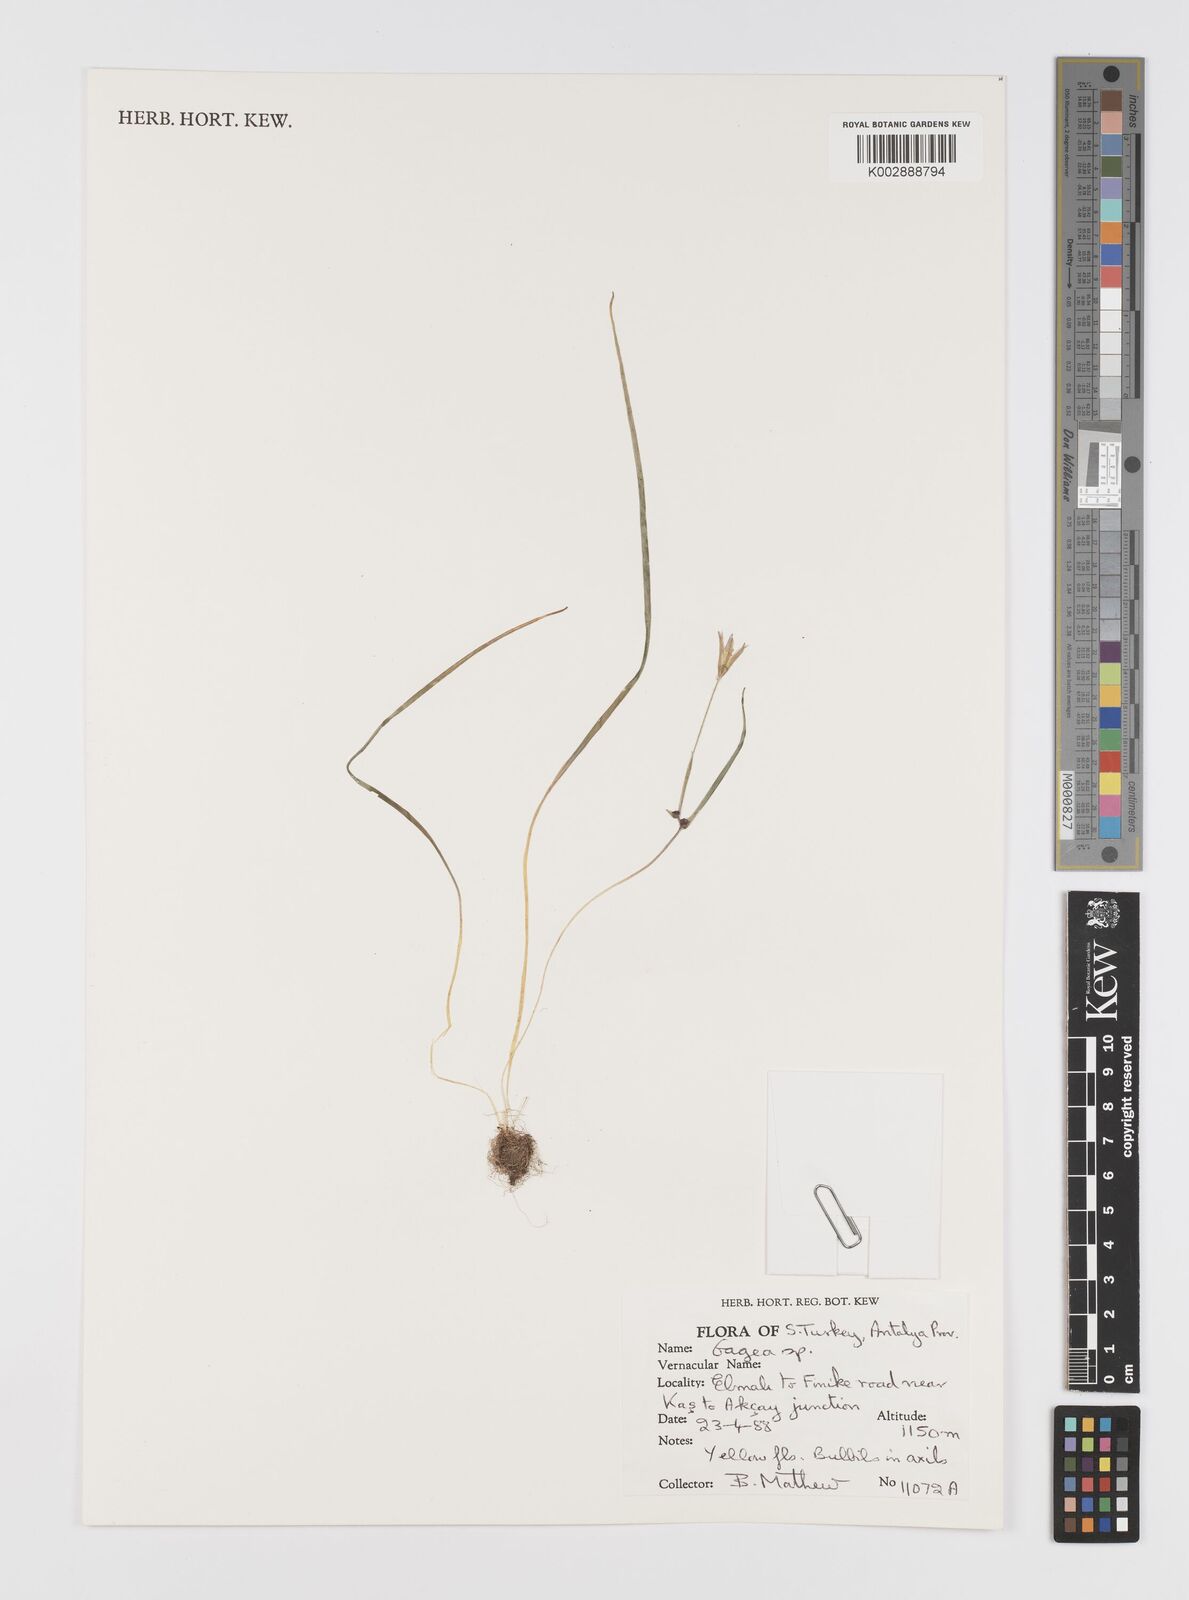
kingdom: Plantae
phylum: Tracheophyta
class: Liliopsida
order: Liliales
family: Liliaceae
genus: Gagea
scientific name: Gagea
